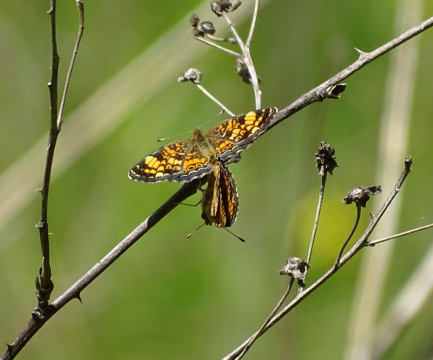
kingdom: Animalia
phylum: Arthropoda
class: Insecta
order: Lepidoptera
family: Nymphalidae
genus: Phyciodes
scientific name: Phyciodes tharos
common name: Pearl Crescent
